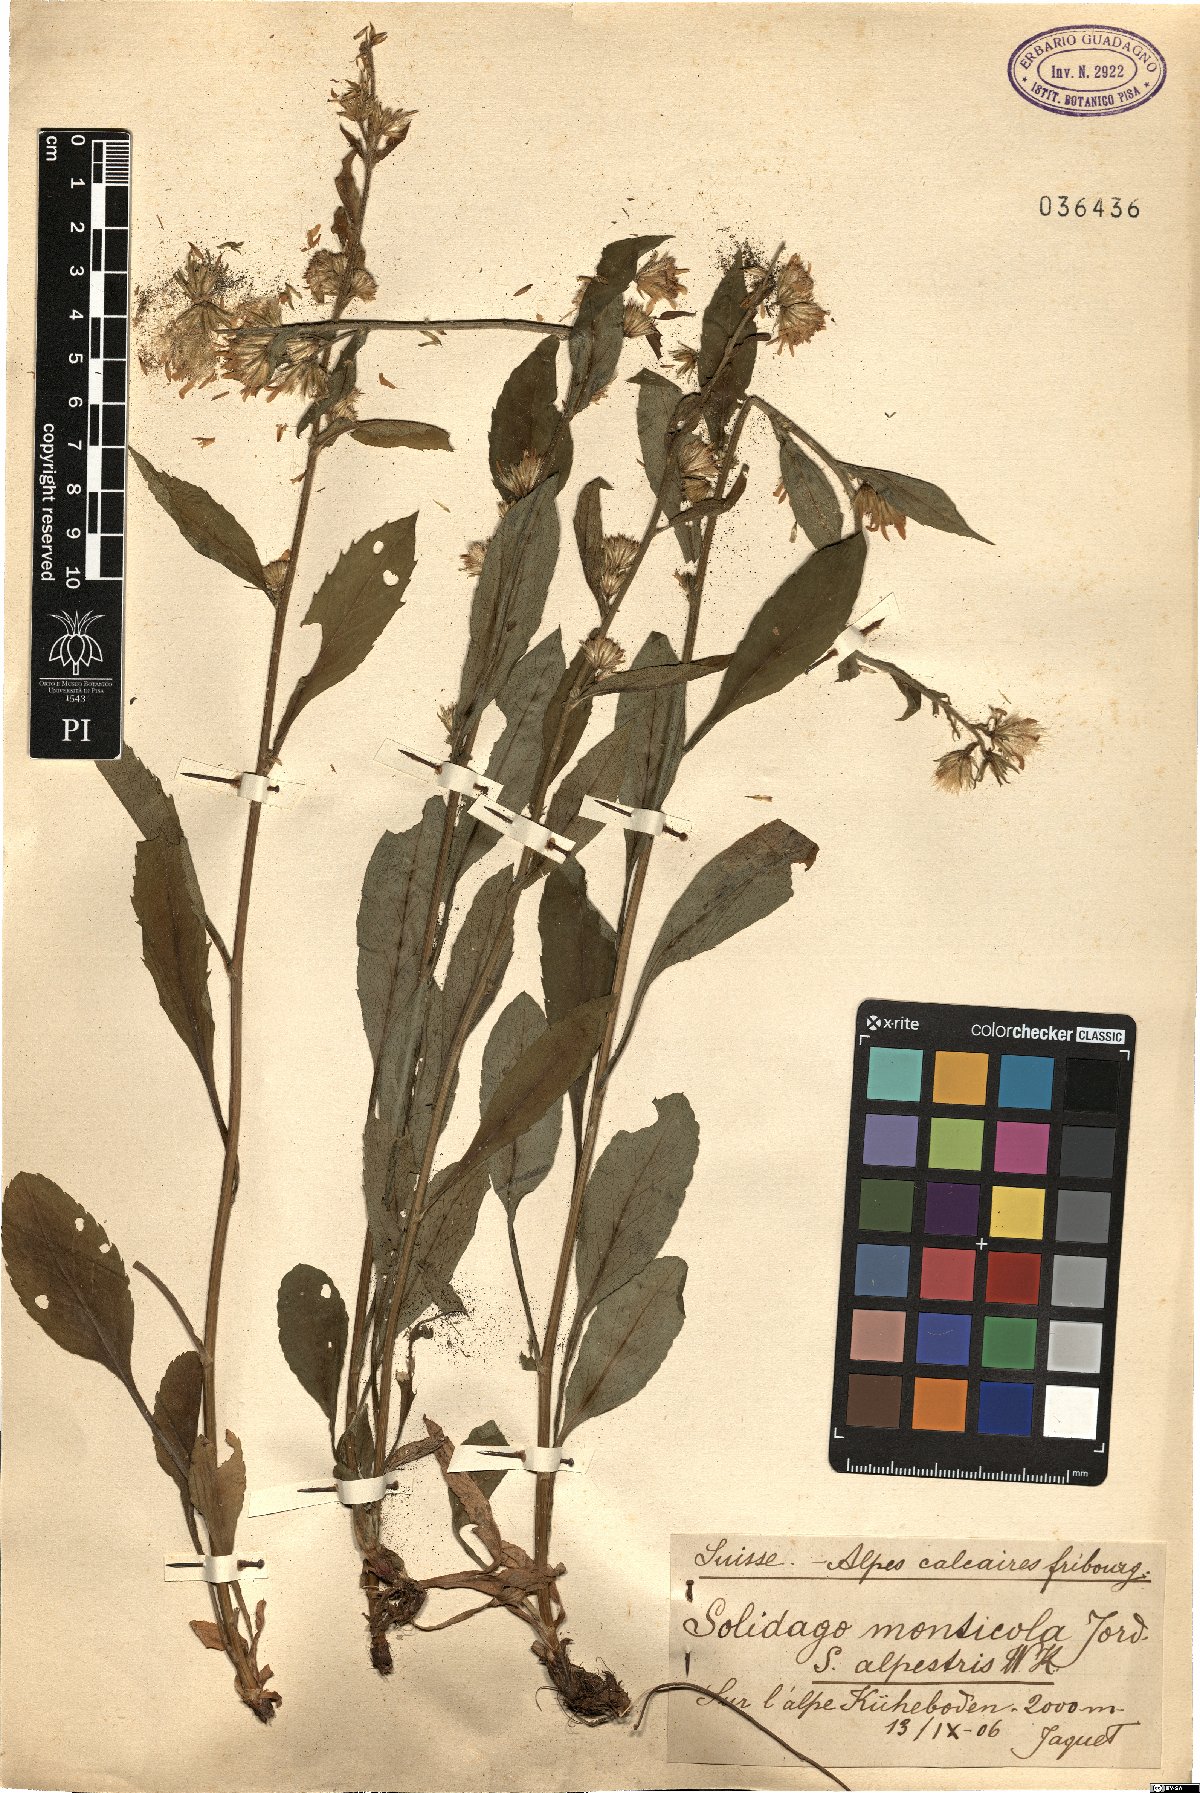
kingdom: Plantae
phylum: Tracheophyta
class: Magnoliopsida
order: Asterales
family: Asteraceae
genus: Solidago
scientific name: Solidago monticola
